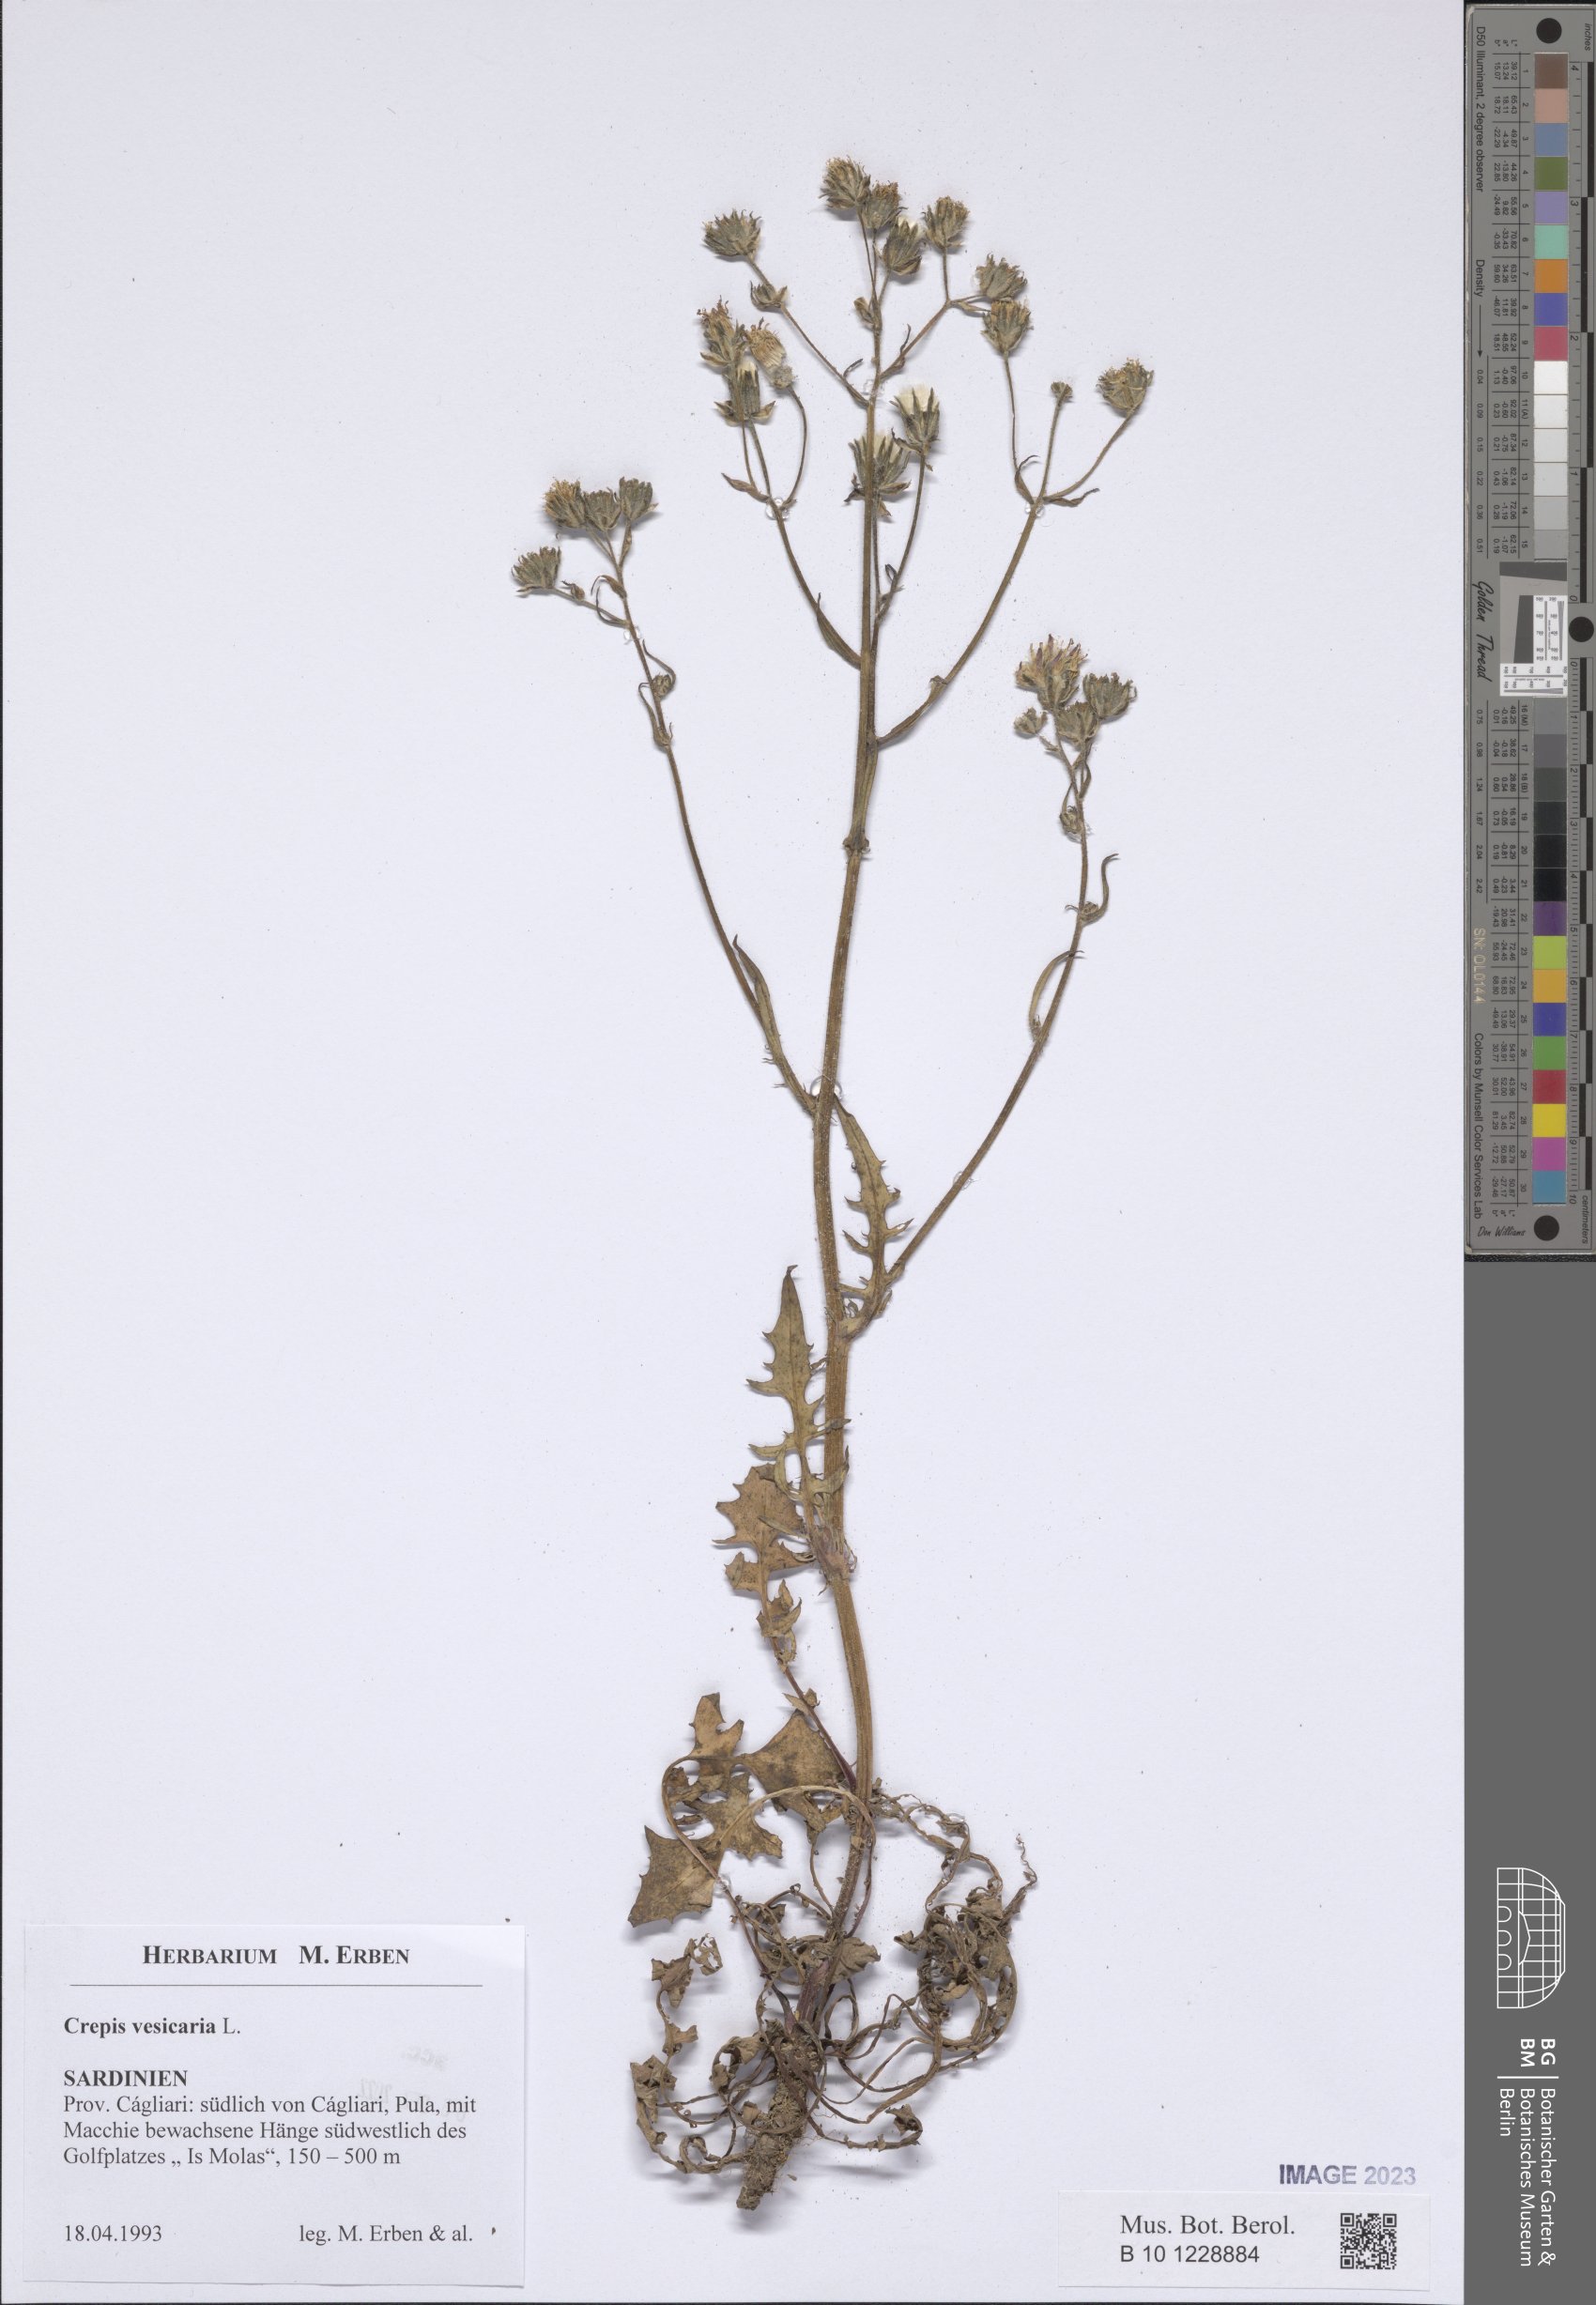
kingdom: Plantae
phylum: Tracheophyta
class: Magnoliopsida
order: Asterales
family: Asteraceae
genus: Crepis
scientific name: Crepis vesicaria
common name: Beaked hawksbeard
